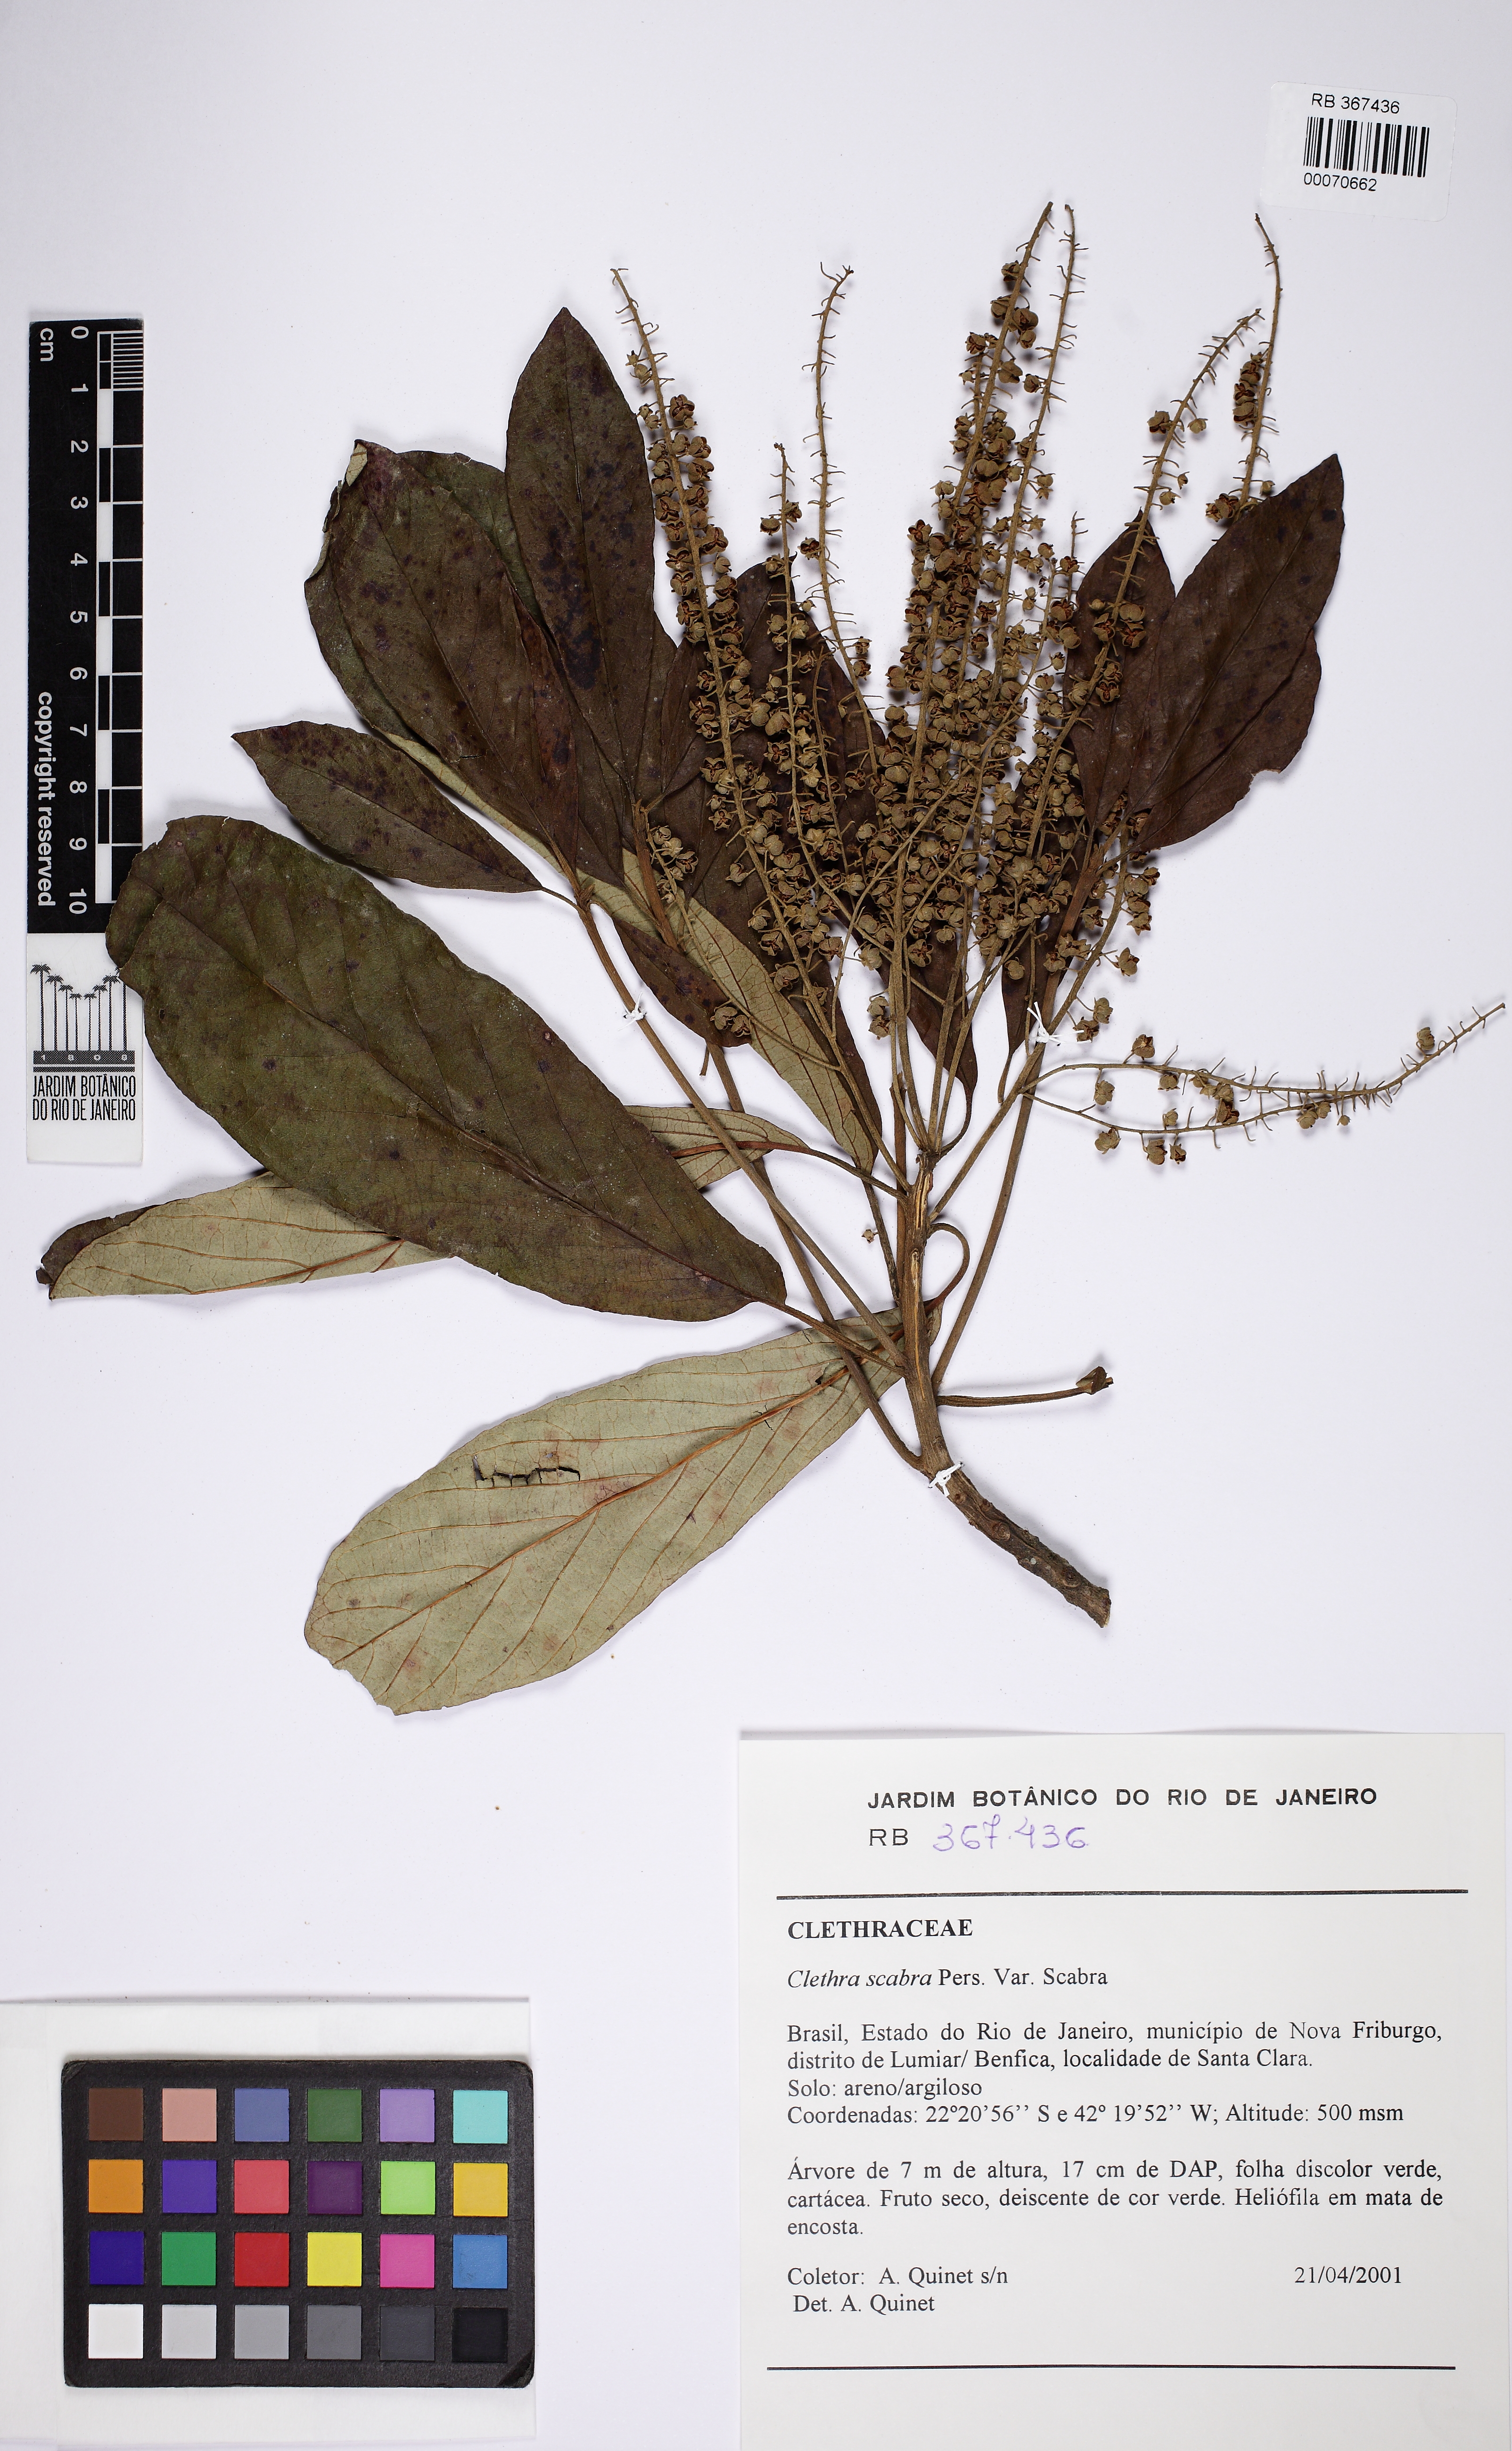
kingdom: Plantae
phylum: Tracheophyta
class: Magnoliopsida
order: Ericales
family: Clethraceae
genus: Clethra
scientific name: Clethra scabra
